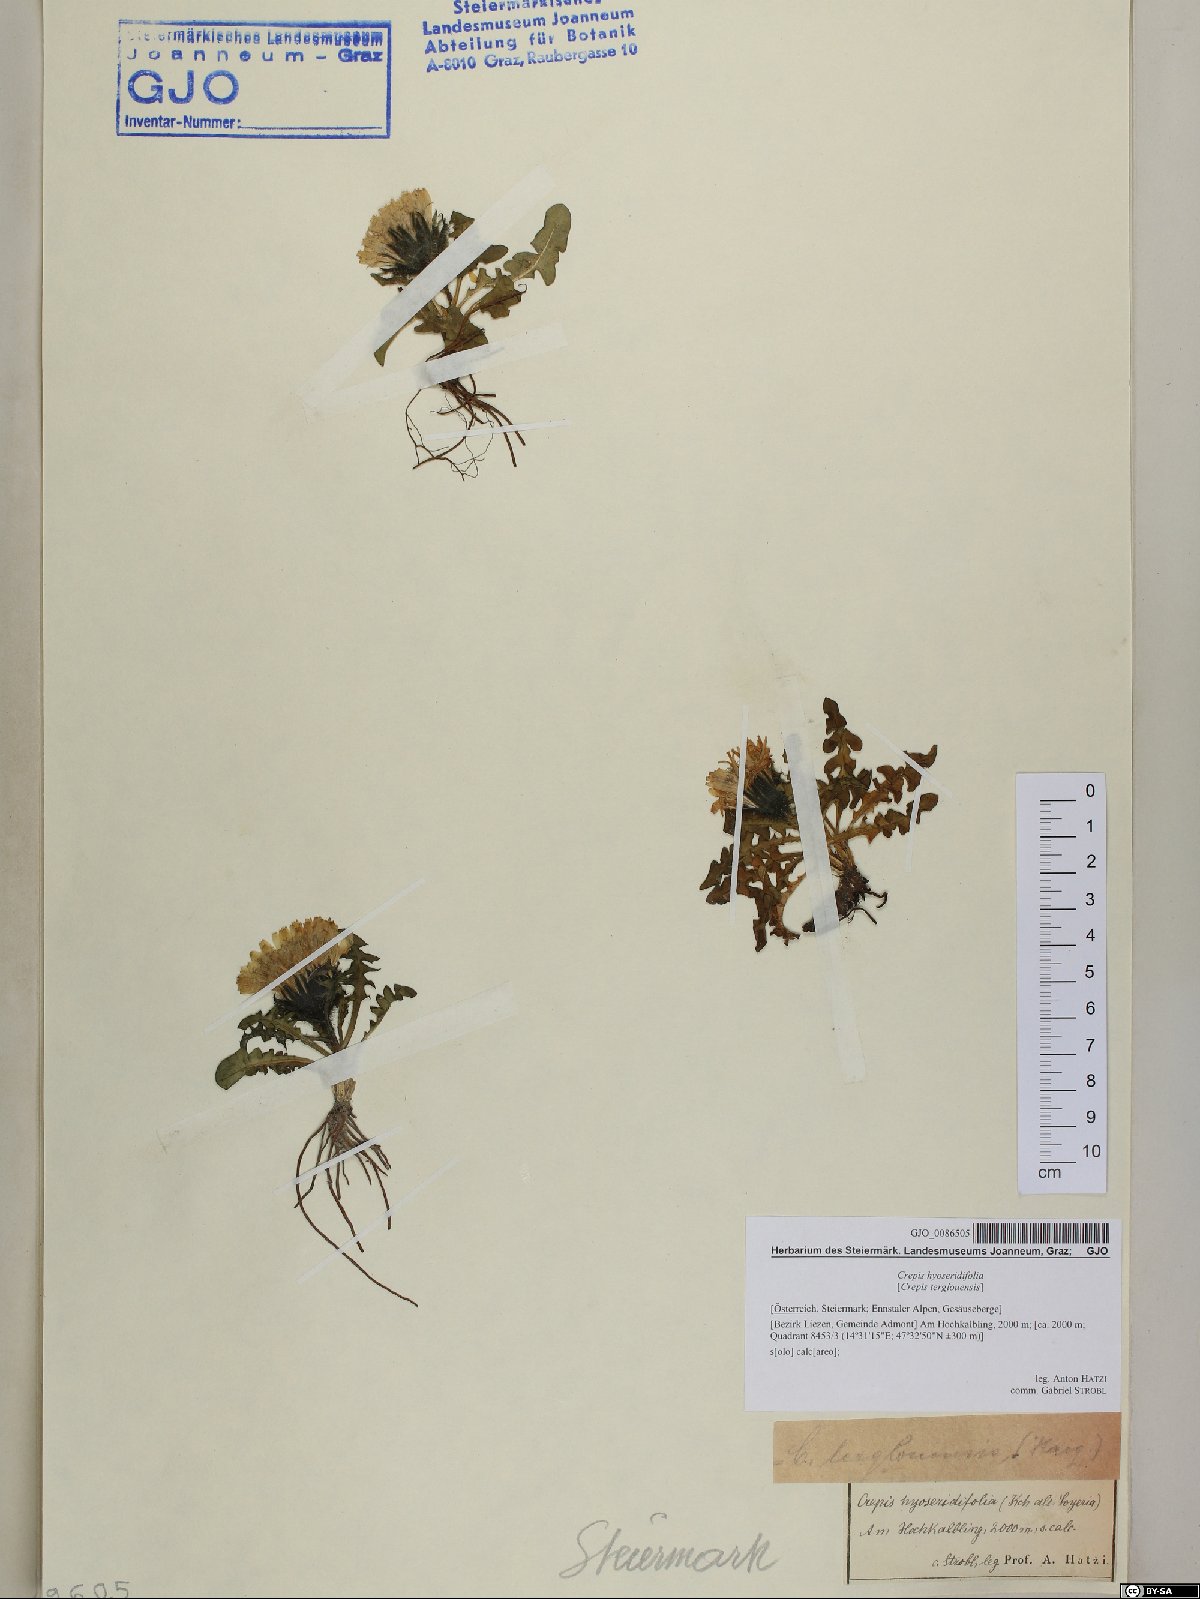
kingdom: Plantae
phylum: Tracheophyta
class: Magnoliopsida
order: Asterales
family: Asteraceae
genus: Crepis
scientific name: Crepis terglouensis
